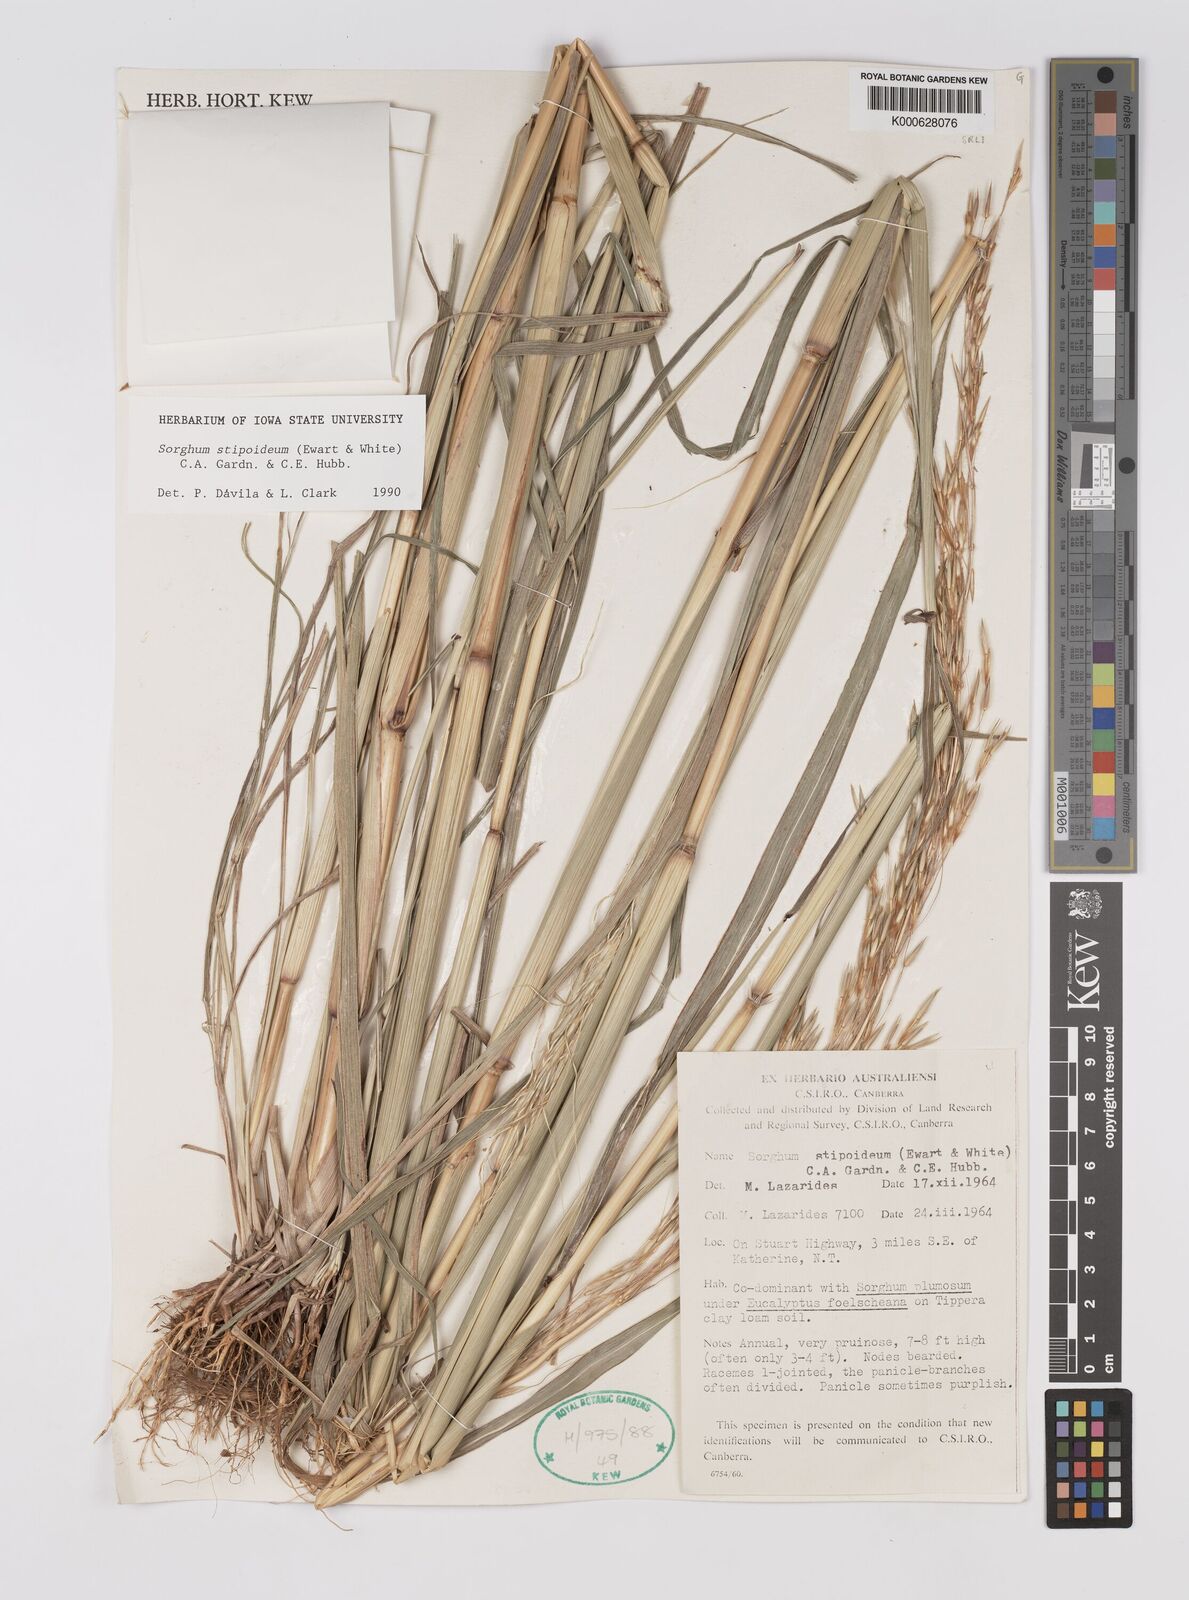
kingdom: Plantae
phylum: Tracheophyta
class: Liliopsida
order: Poales
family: Poaceae
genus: Sarga
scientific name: Sarga stipoidea
